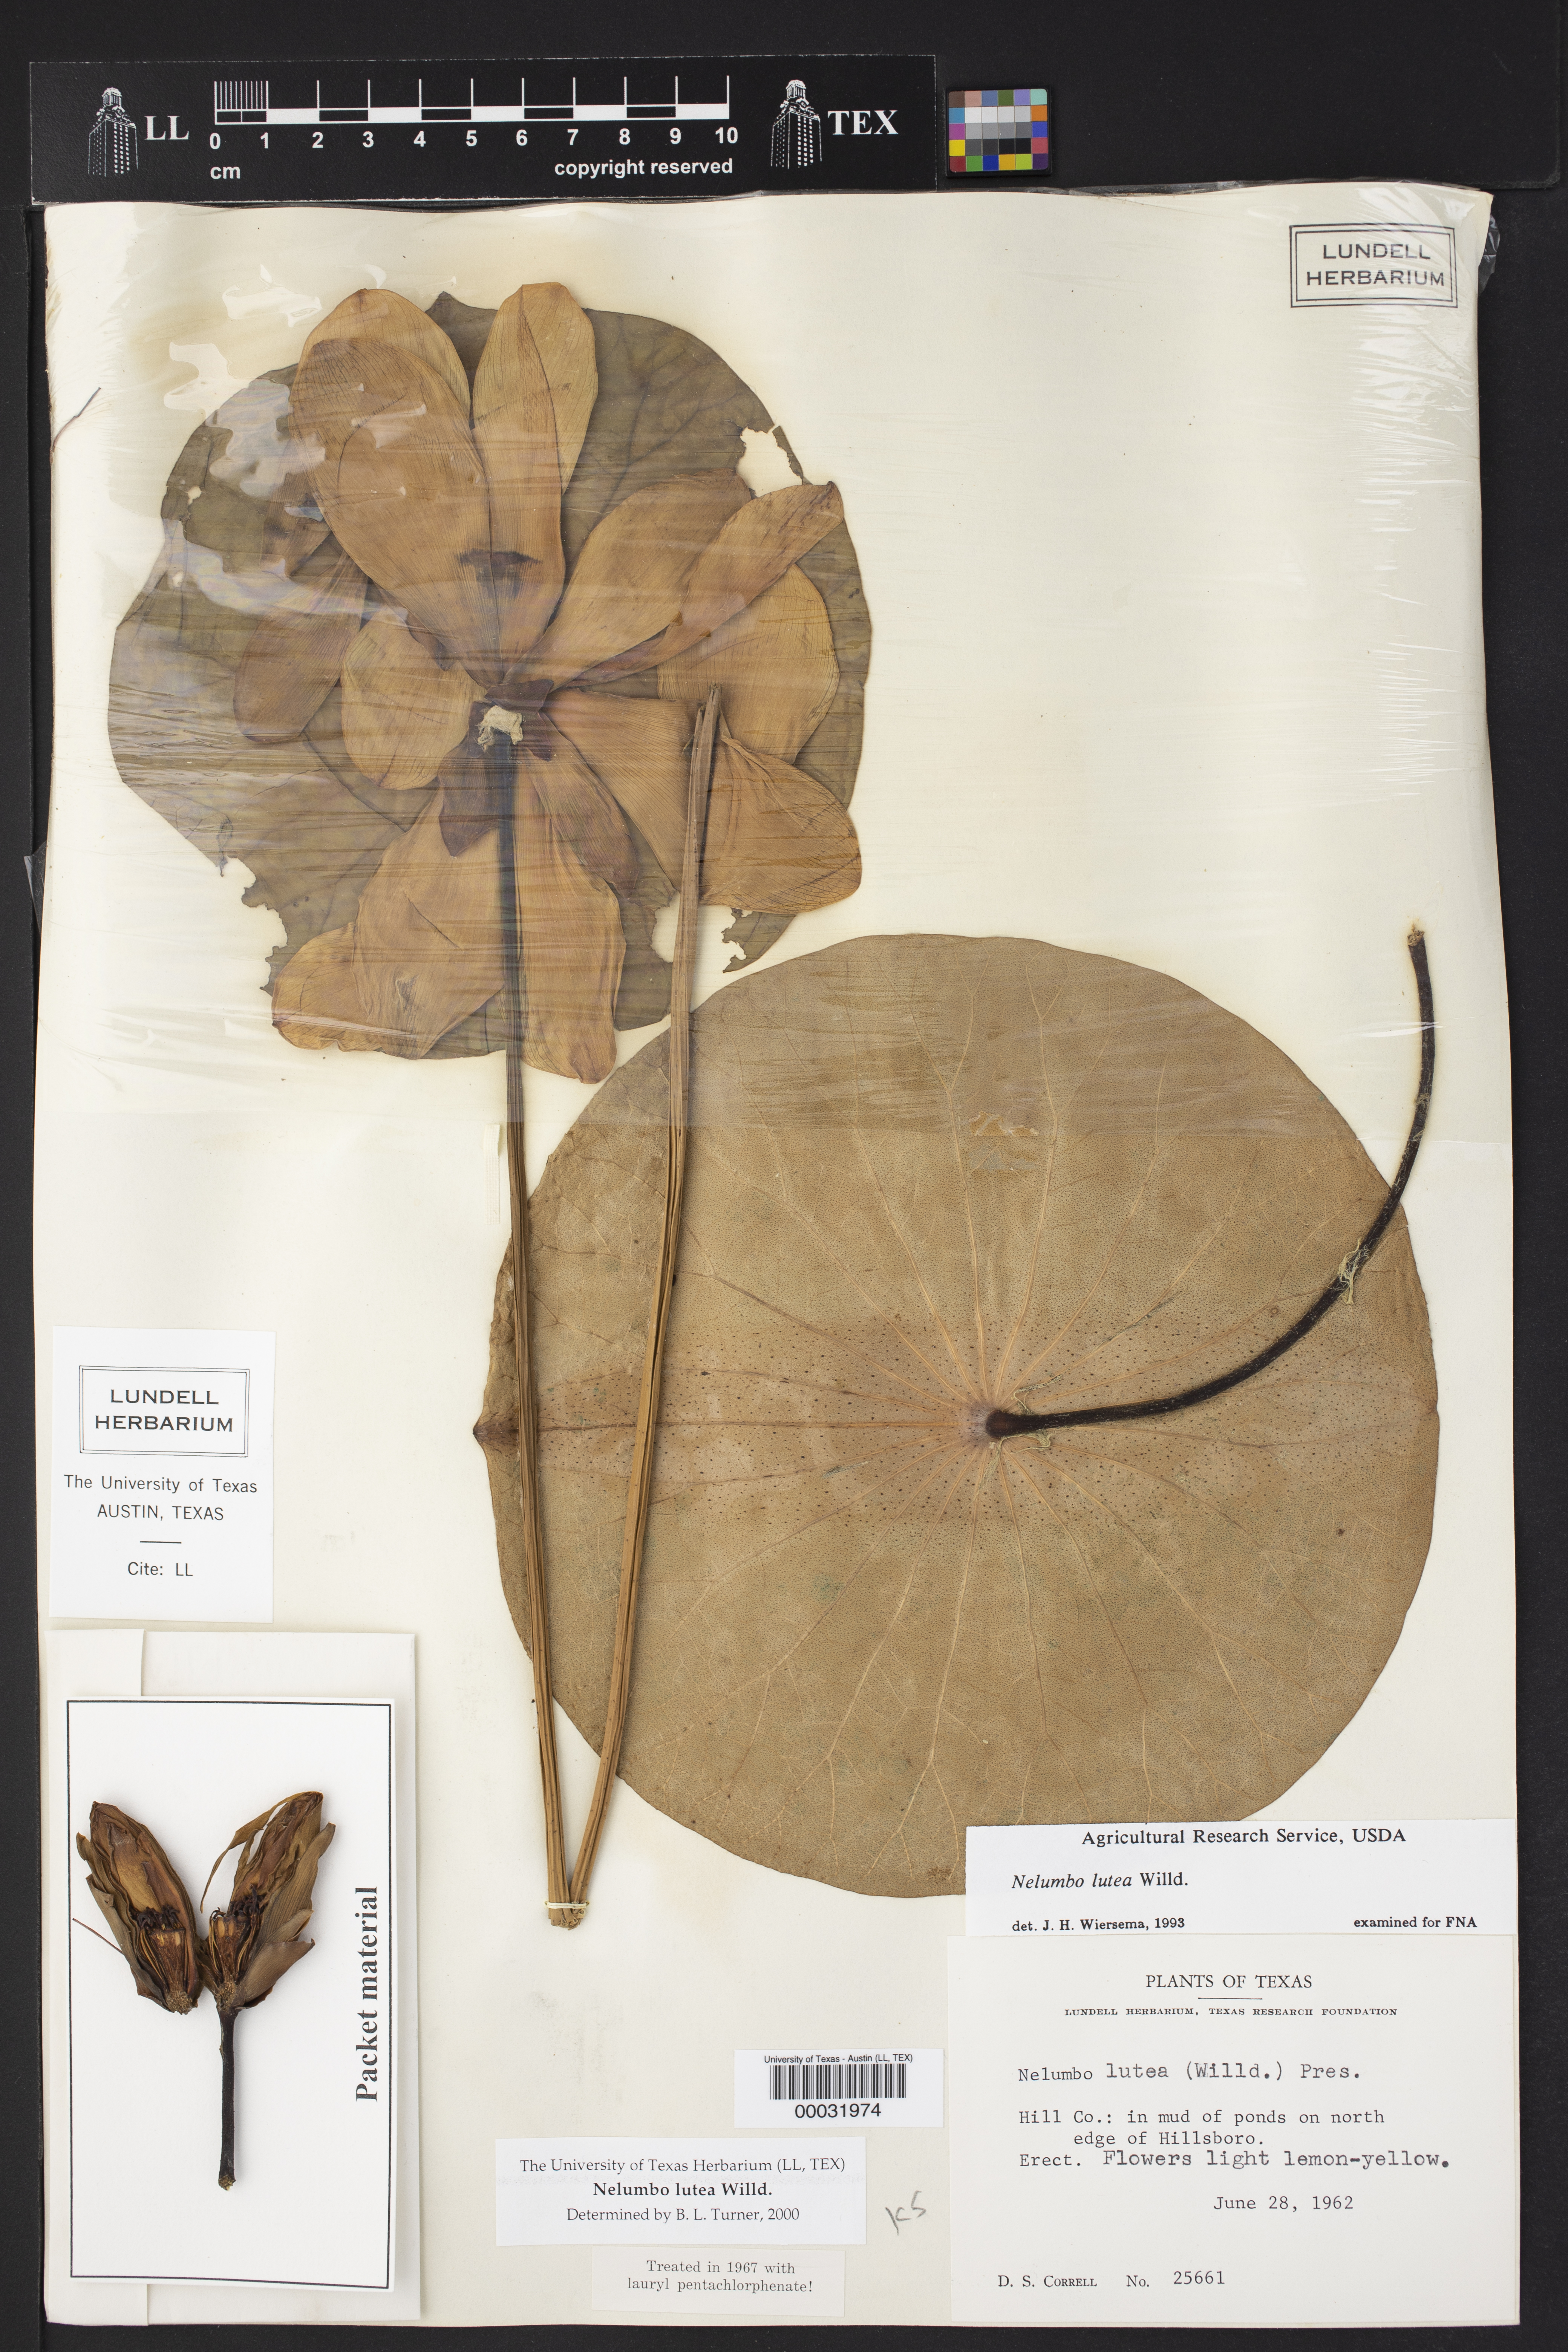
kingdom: Plantae
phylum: Tracheophyta
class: Magnoliopsida
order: Proteales
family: Nelumbonaceae
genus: Nelumbo
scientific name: Nelumbo lutea
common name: American lotus
